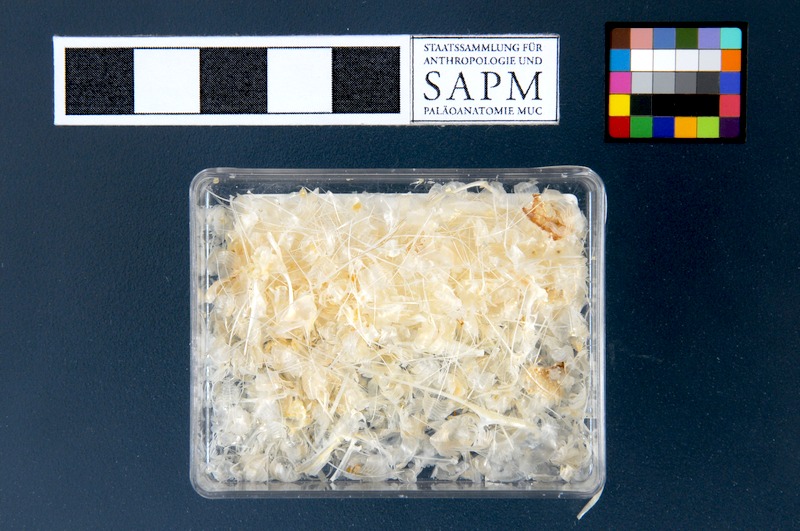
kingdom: Animalia
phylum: Chordata
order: Clupeiformes
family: Engraulidae
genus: Thryssa
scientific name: Thryssa setirostris
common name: Longjaw thryssa
